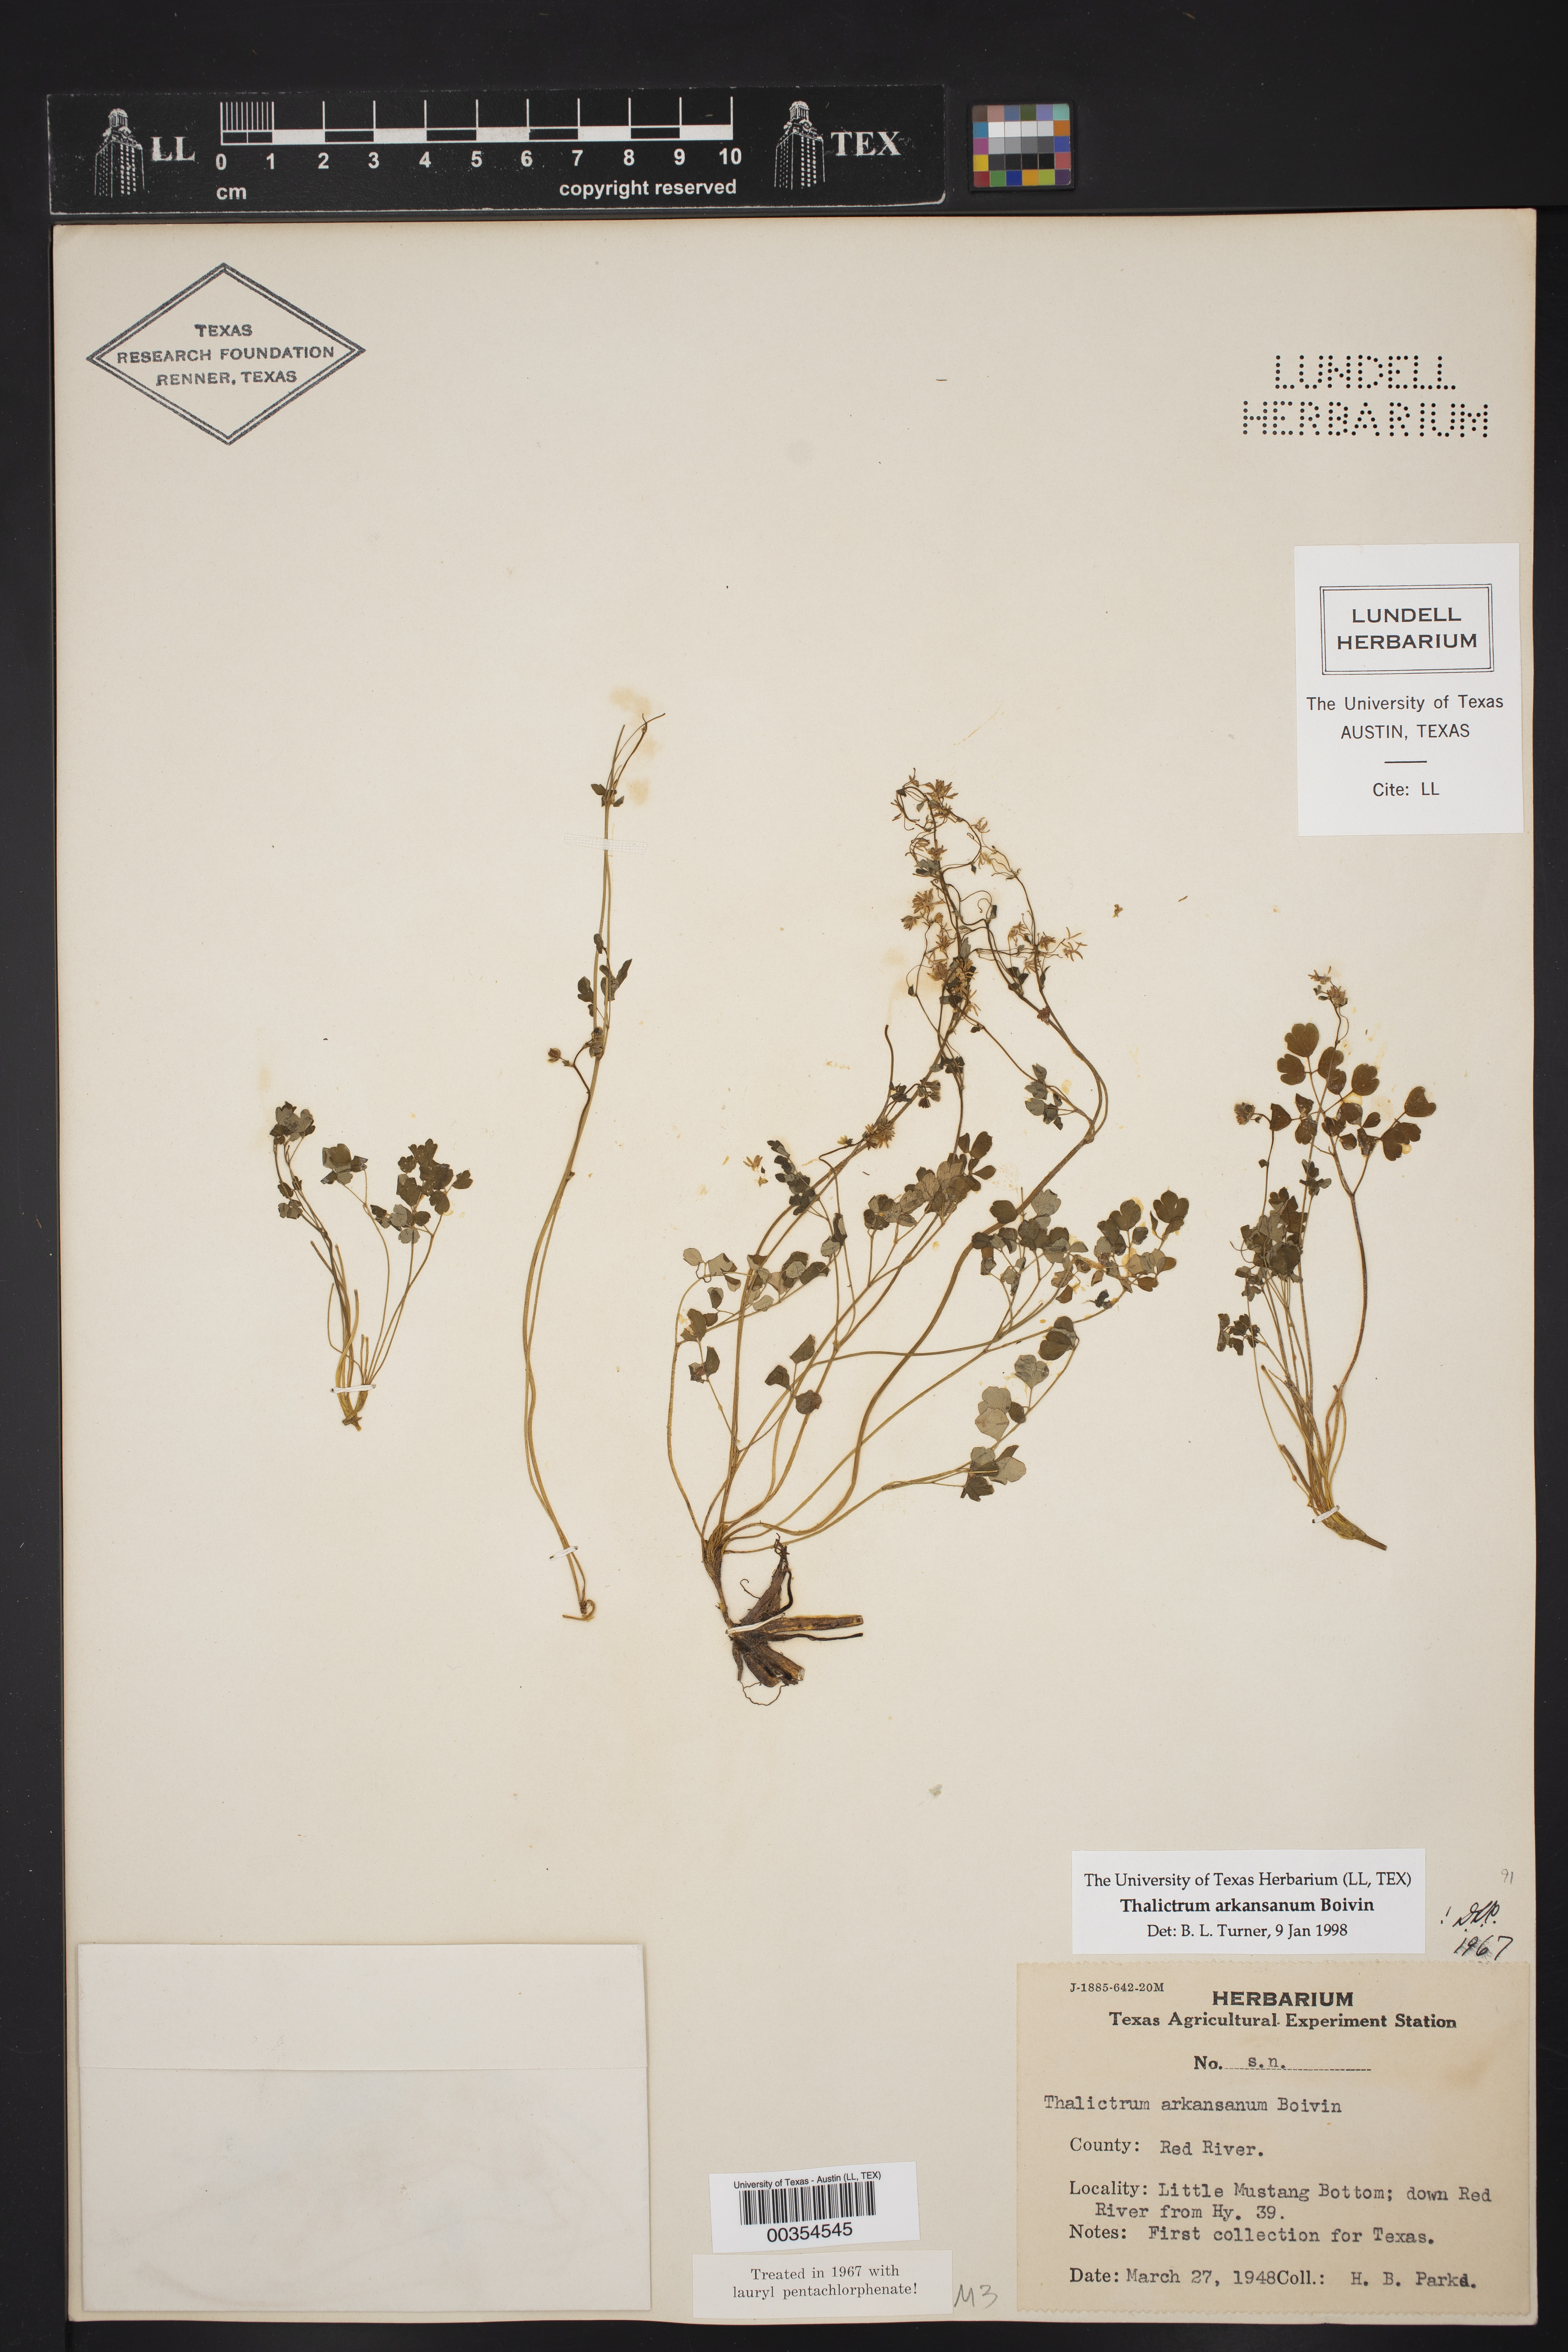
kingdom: Plantae
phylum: Tracheophyta
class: Magnoliopsida
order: Ranunculales
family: Ranunculaceae
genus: Thalictrum
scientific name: Thalictrum arkansanum
